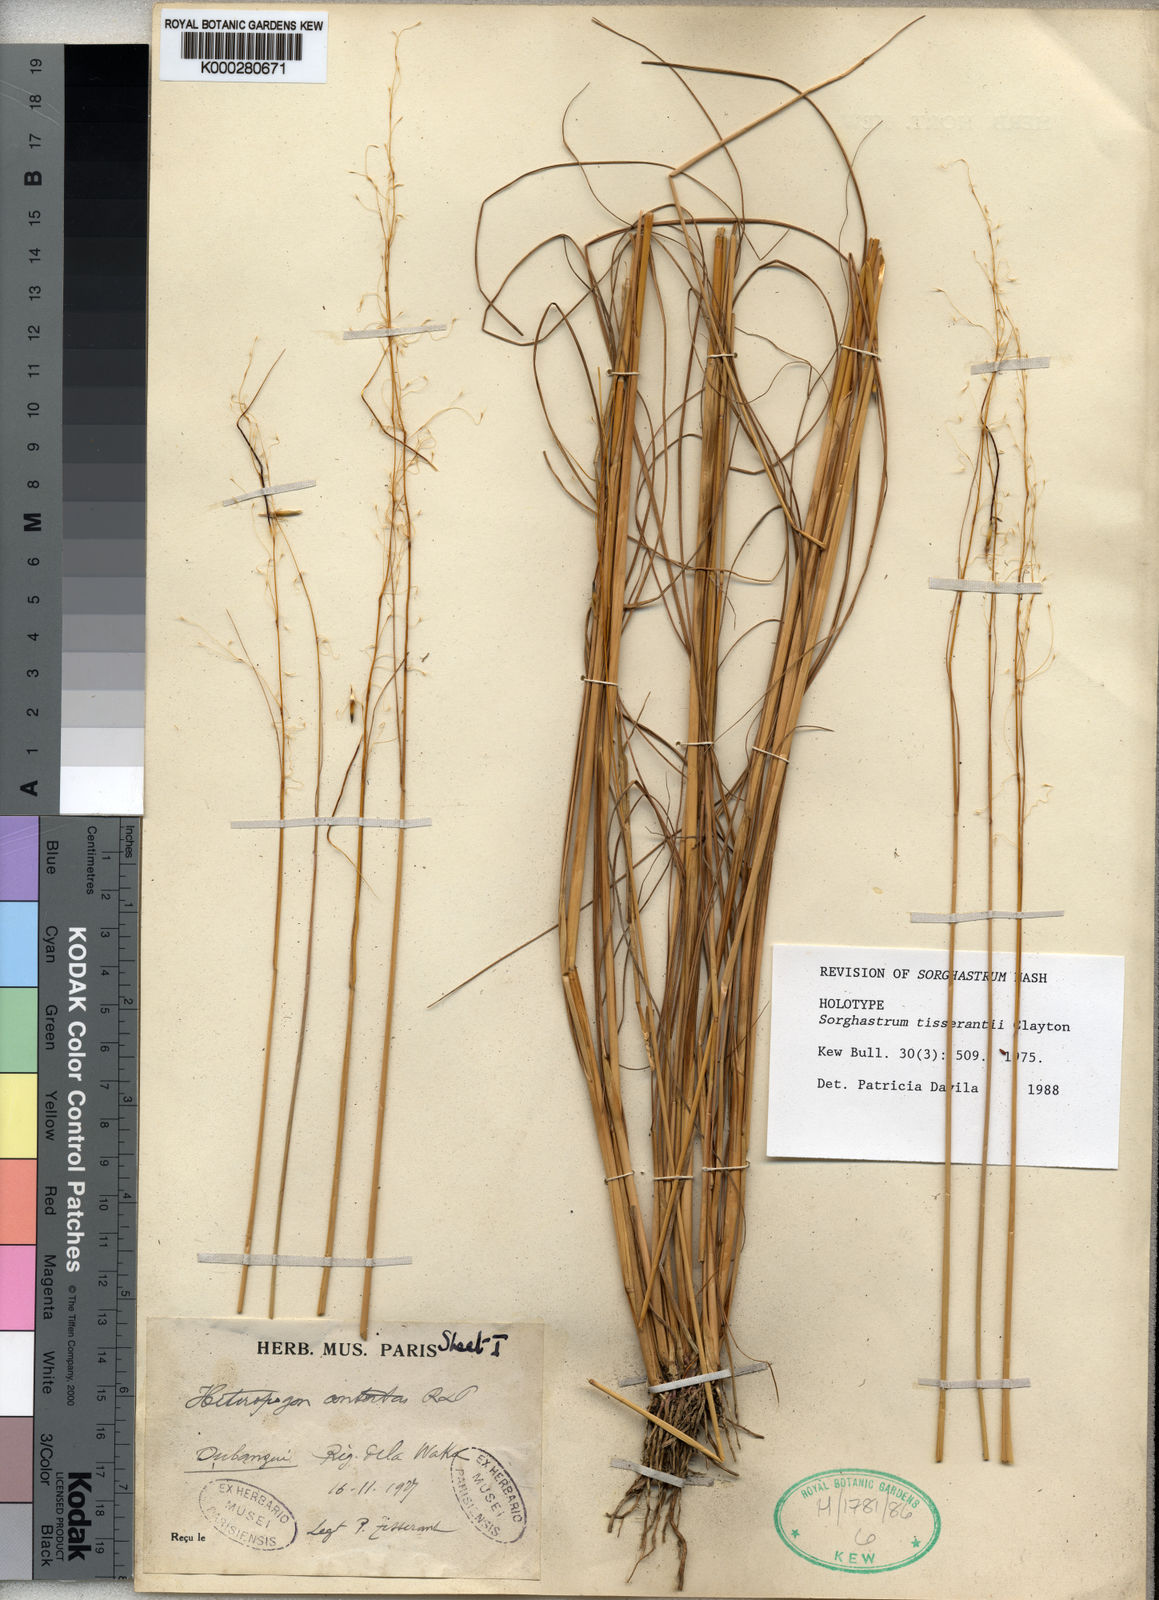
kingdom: Plantae
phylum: Tracheophyta
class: Liliopsida
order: Poales
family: Poaceae
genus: Sorghastrum
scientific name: Sorghastrum tisserantii
